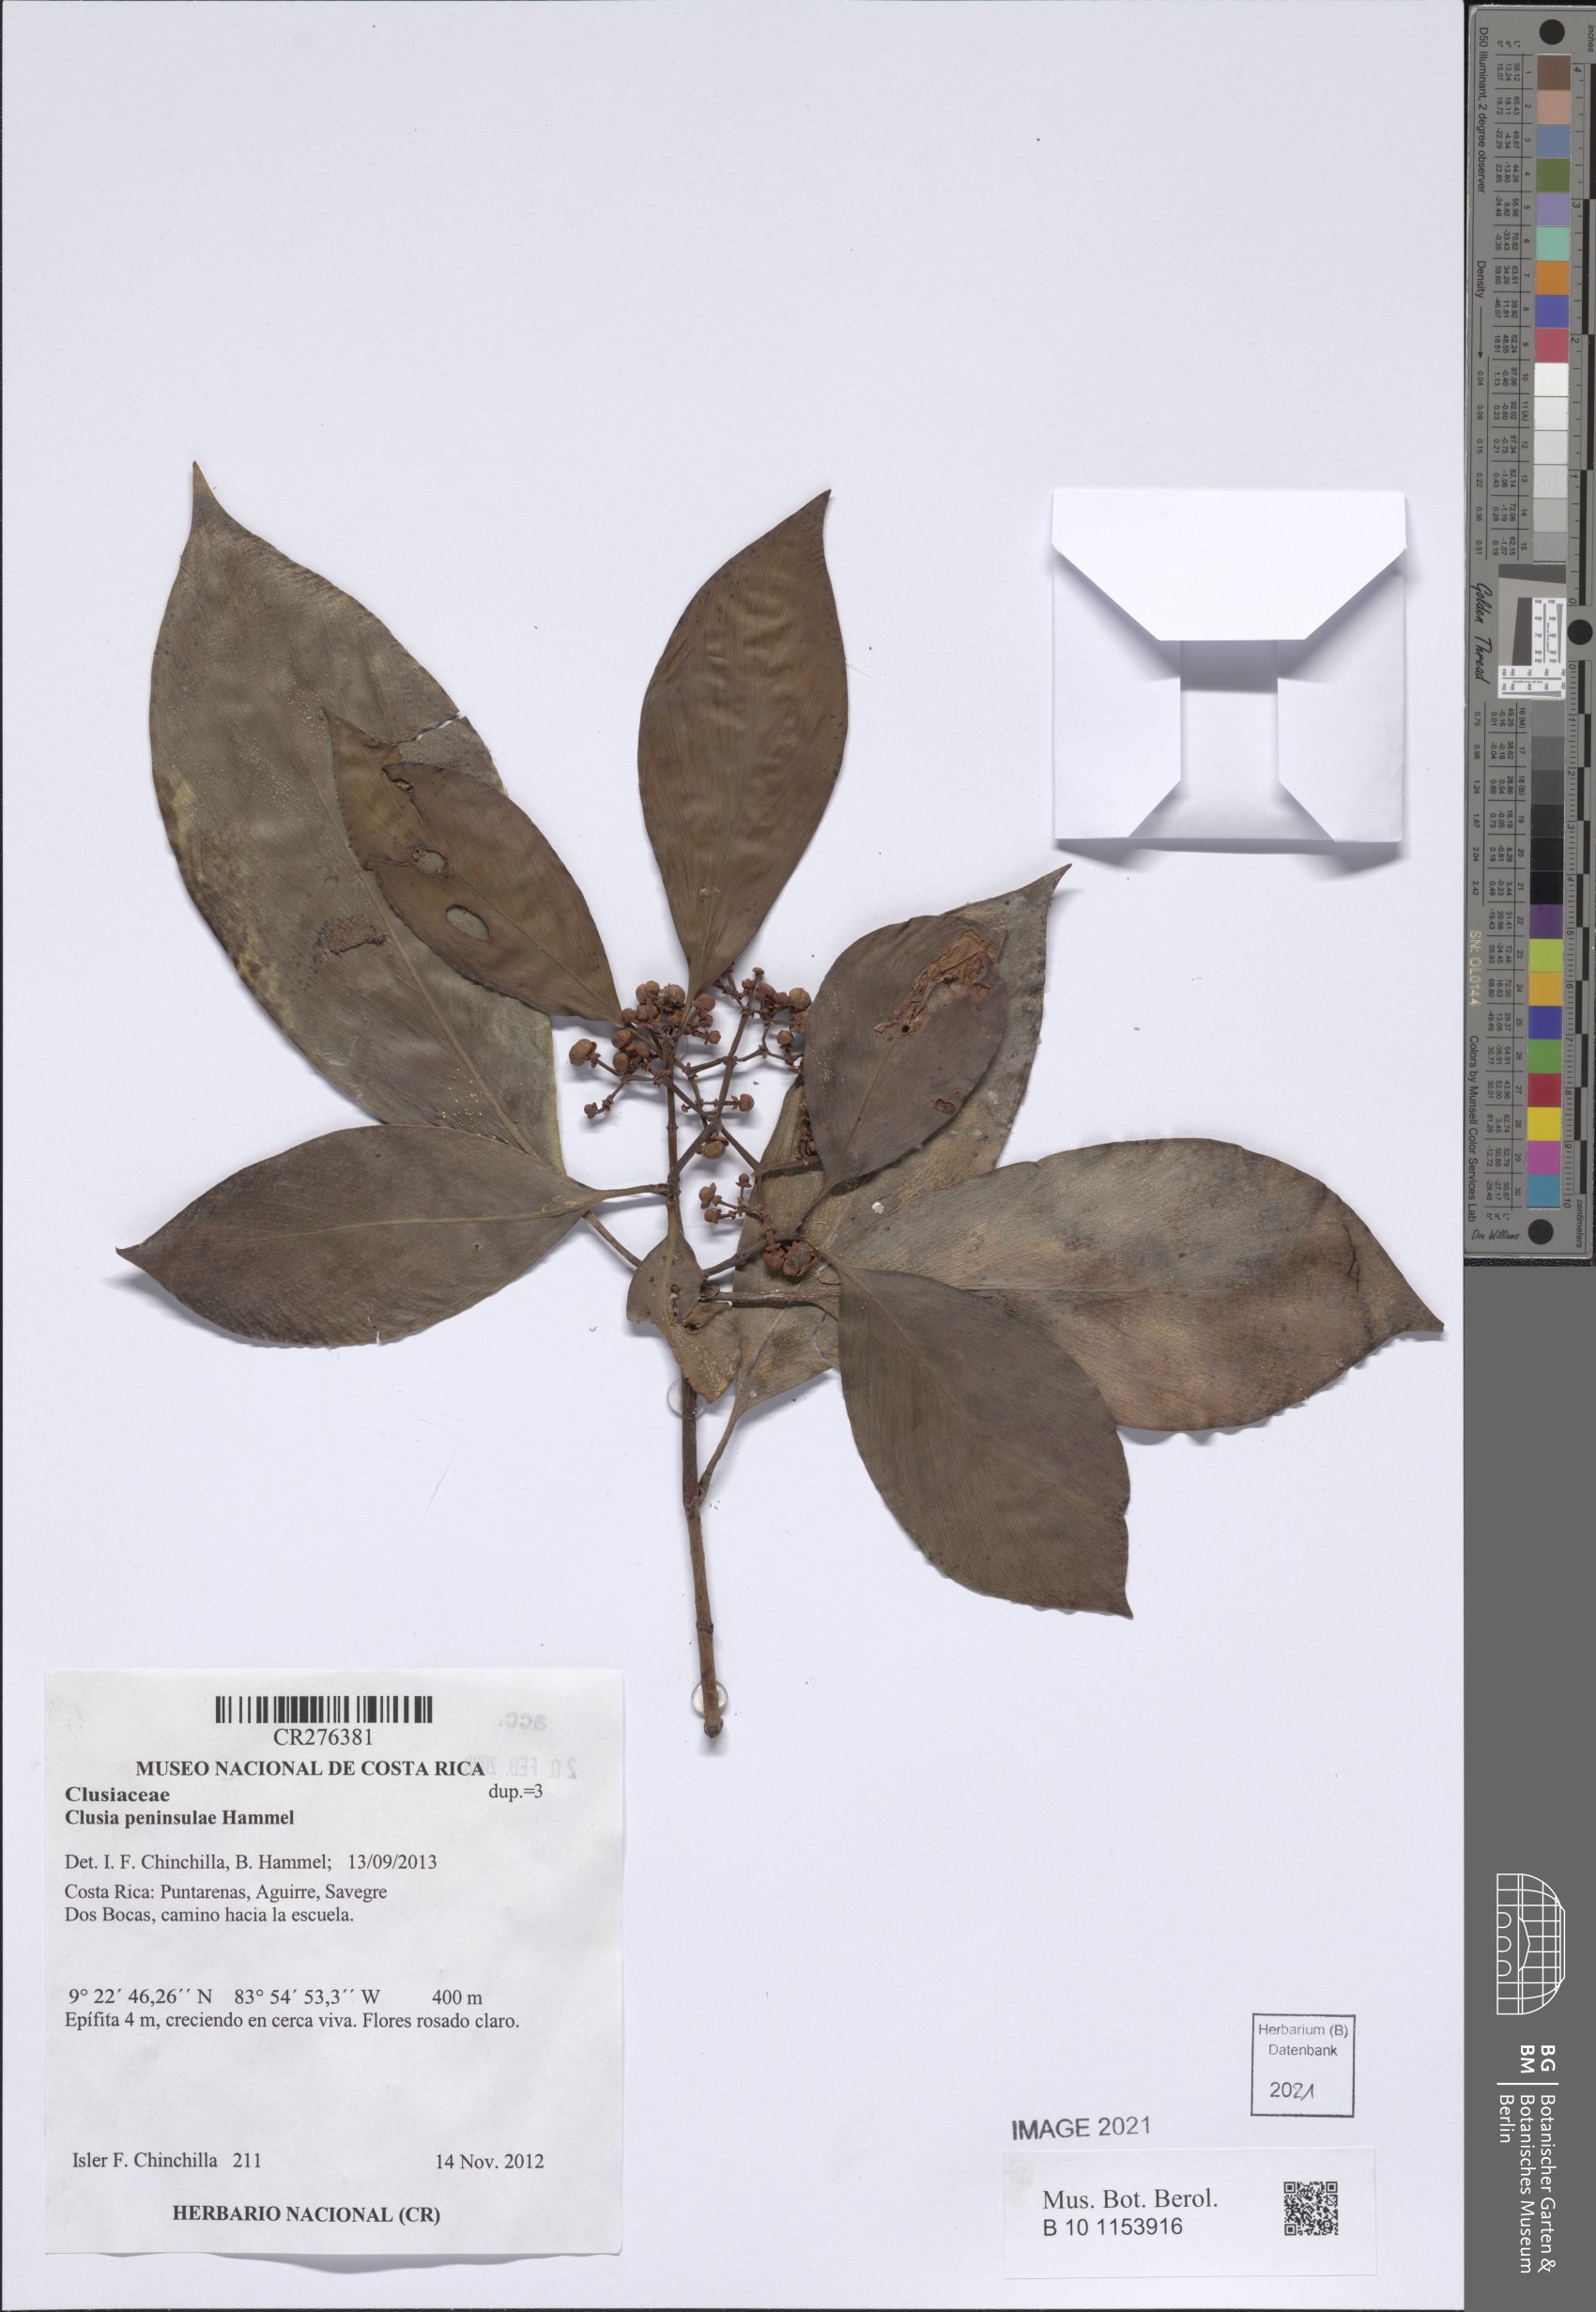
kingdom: Plantae
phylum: Tracheophyta
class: Magnoliopsida
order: Malpighiales
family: Clusiaceae
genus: Clusia
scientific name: Clusia peninsulae
